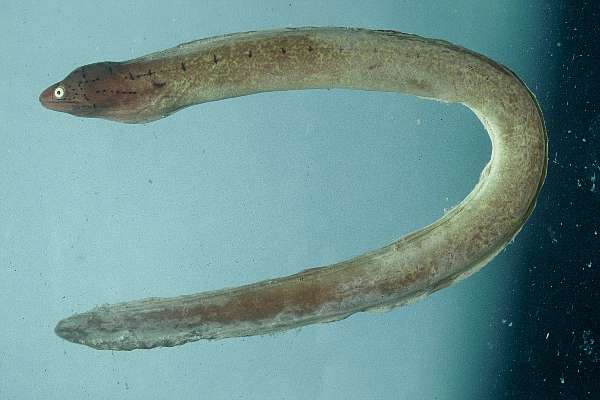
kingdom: Animalia
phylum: Chordata
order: Anguilliformes
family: Muraenidae
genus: Gymnothorax
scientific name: Gymnothorax griseus
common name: Geometric moray
